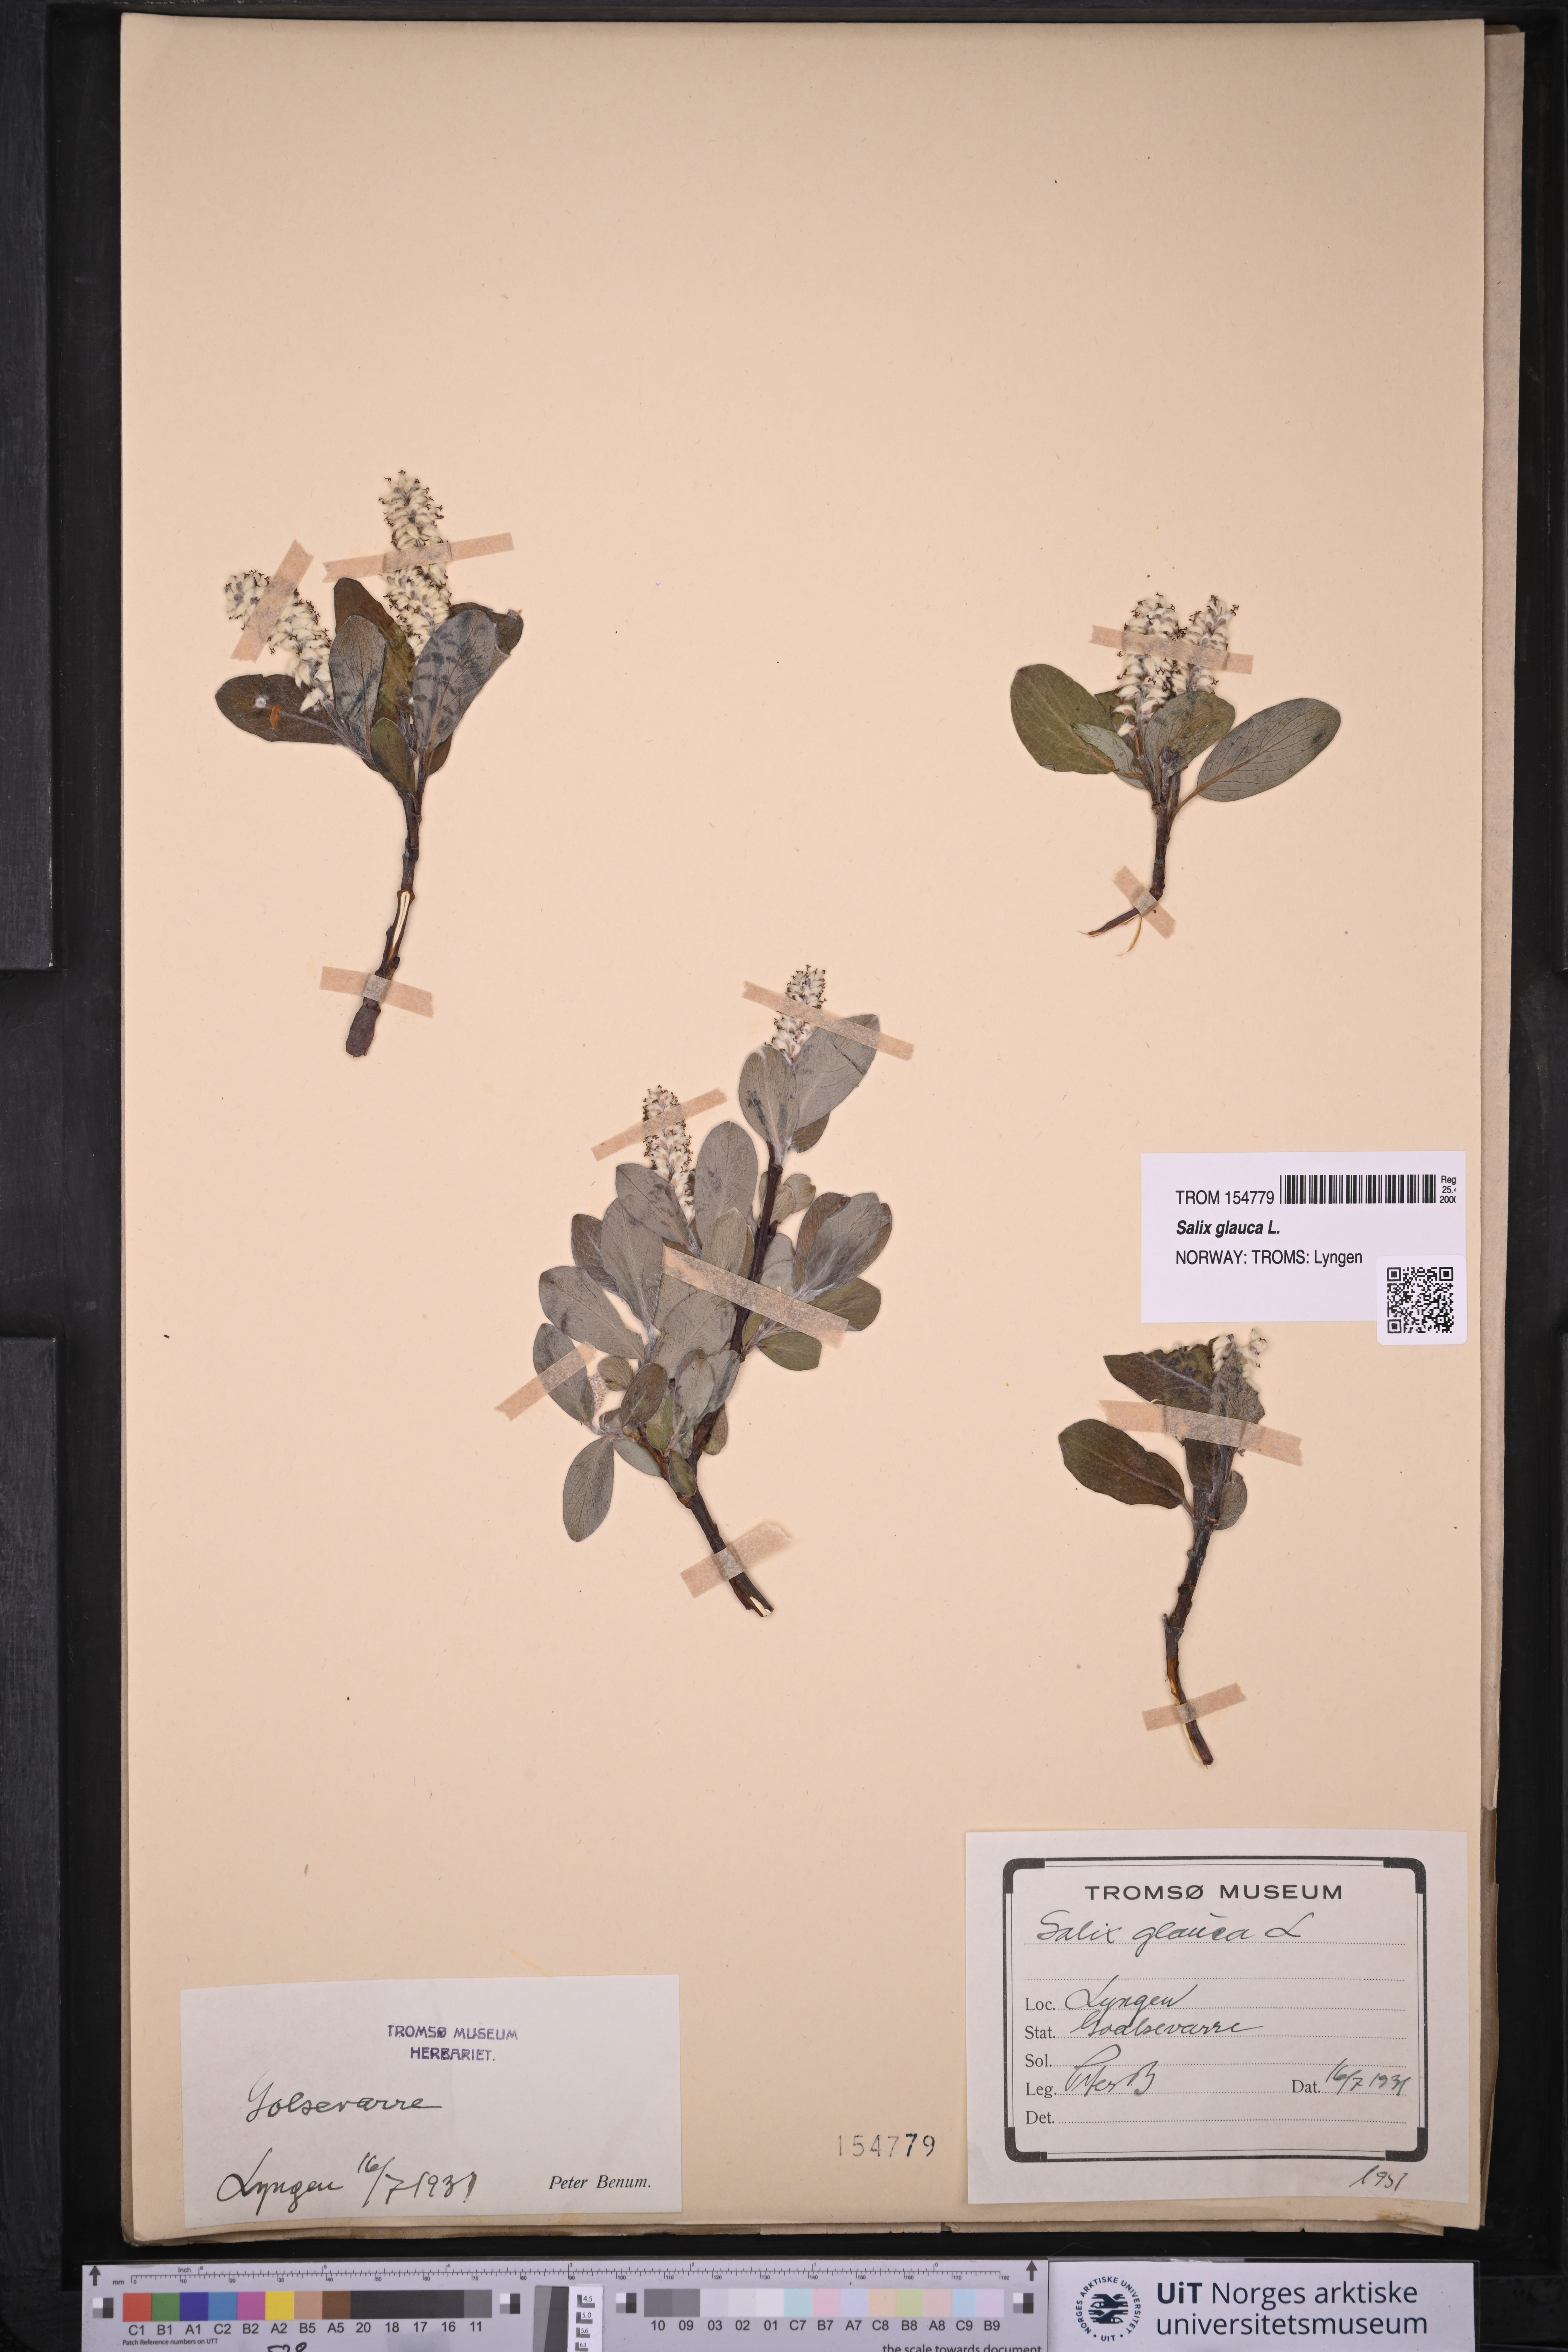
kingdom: Plantae
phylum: Tracheophyta
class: Magnoliopsida
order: Malpighiales
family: Salicaceae
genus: Salix
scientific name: Salix glauca
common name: Glaucous willow
